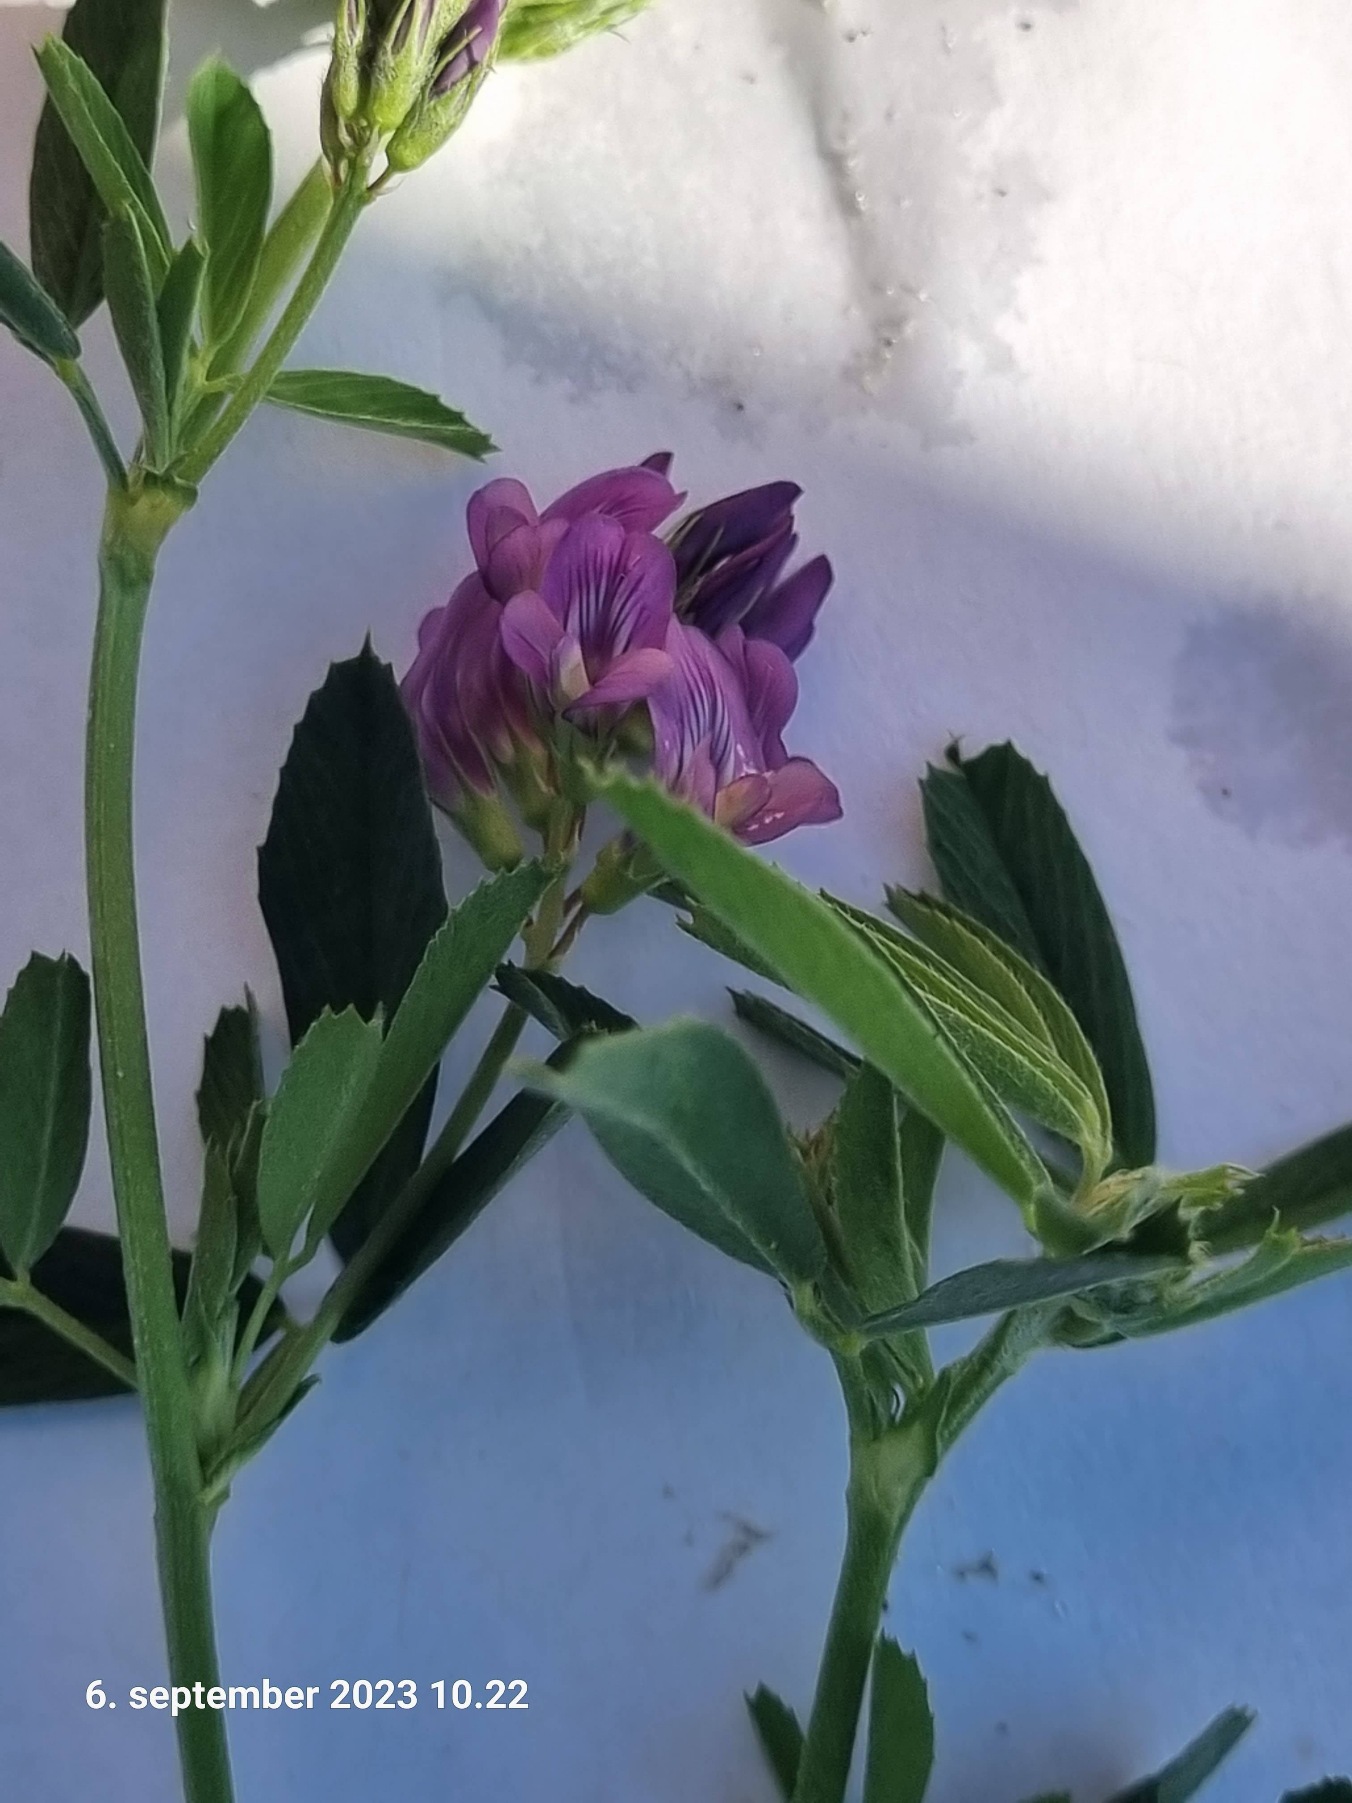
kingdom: Plantae
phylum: Tracheophyta
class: Magnoliopsida
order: Fabales
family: Fabaceae
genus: Medicago
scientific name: Medicago sativa
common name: Lucerne
